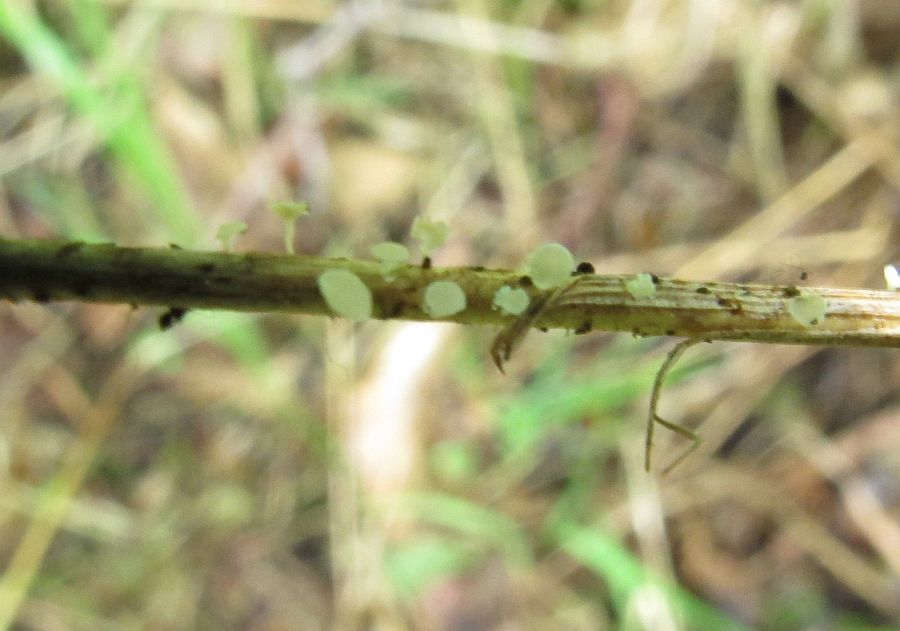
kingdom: Fungi
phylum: Ascomycota
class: Leotiomycetes
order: Helotiales
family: Lachnaceae
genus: Lachnum
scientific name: Lachnum tenuissimum
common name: spinkel frynseskive
